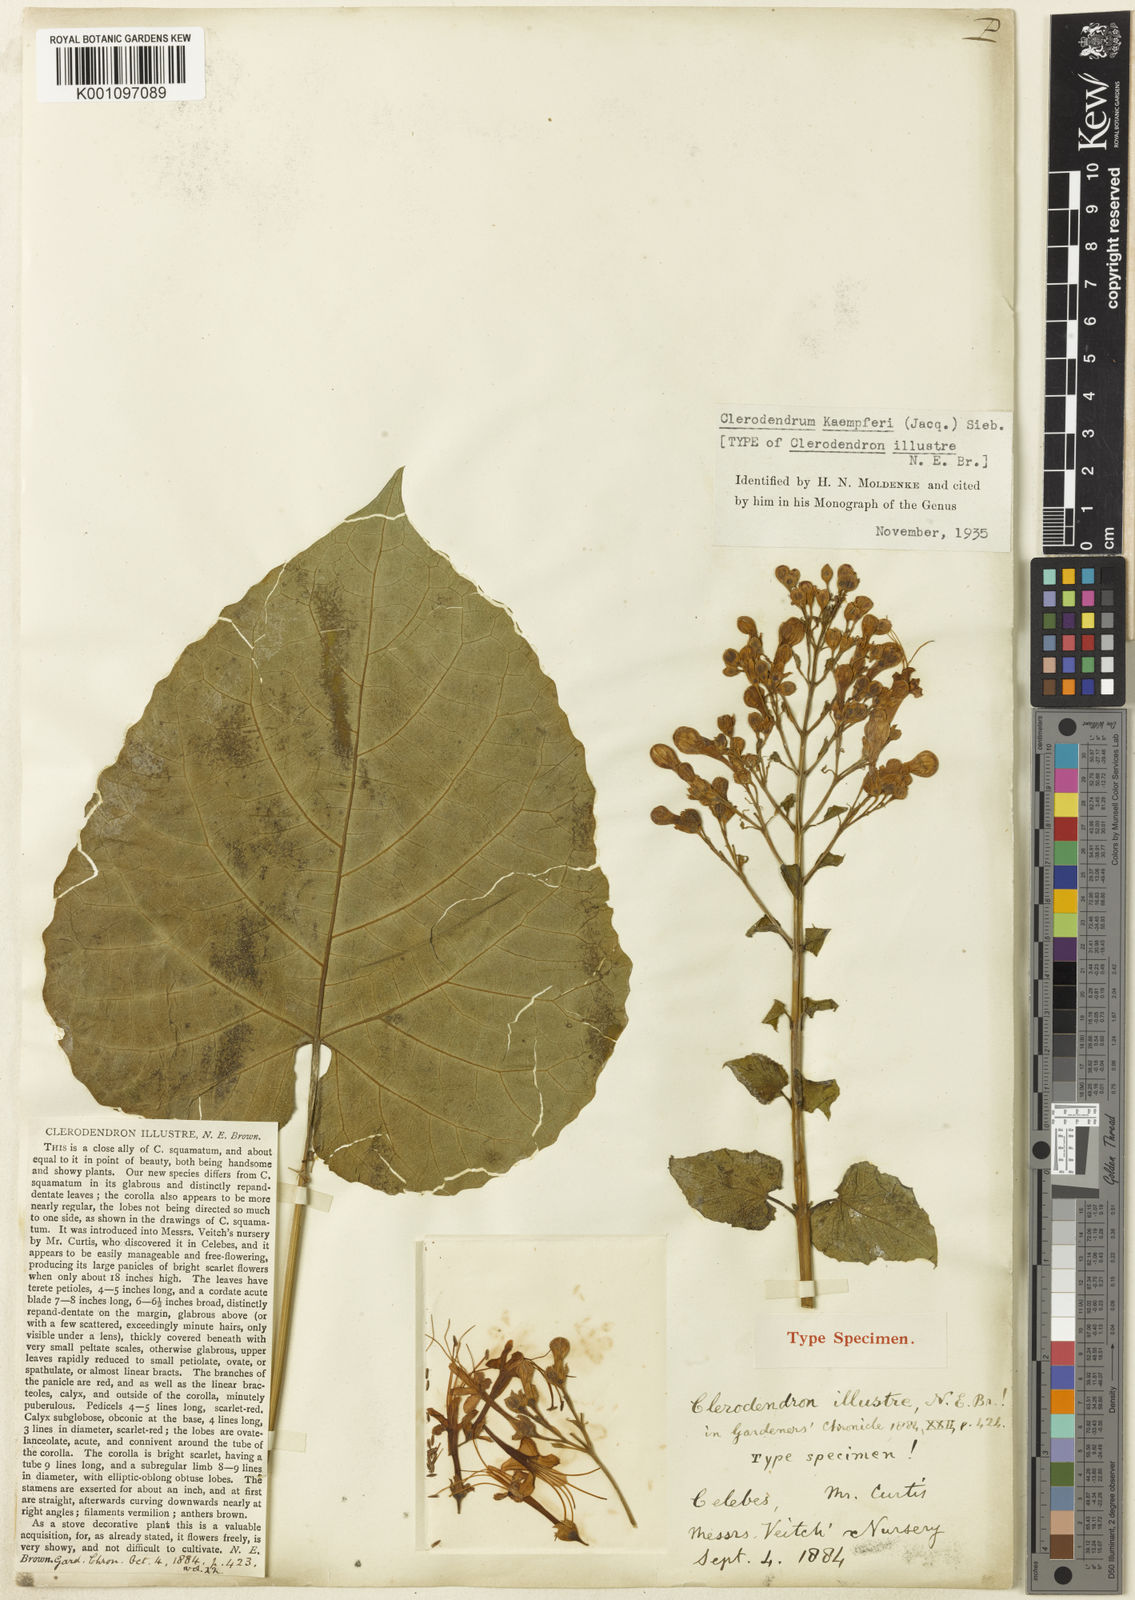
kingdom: Plantae
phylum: Tracheophyta
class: Magnoliopsida
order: Lamiales
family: Lamiaceae
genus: Clerodendrum
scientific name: Clerodendrum
